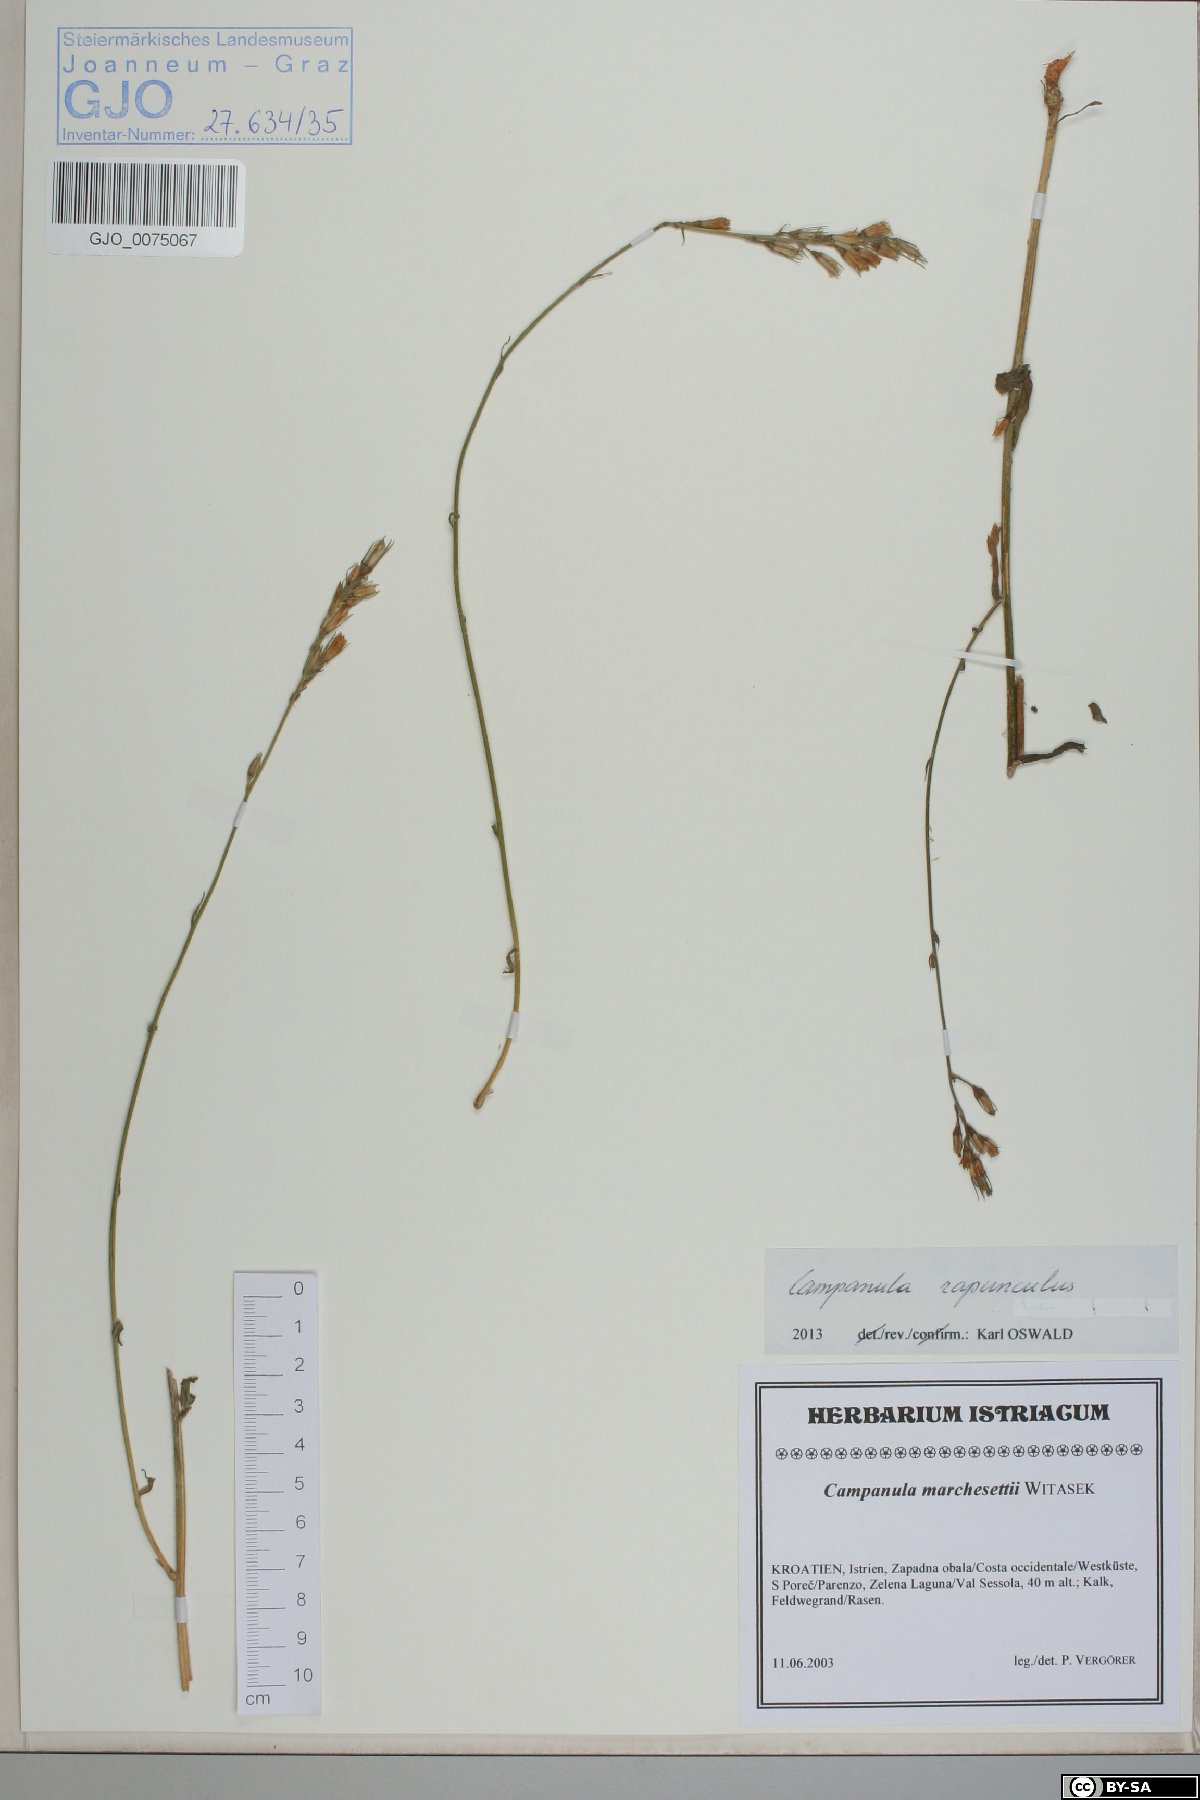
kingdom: Plantae
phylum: Tracheophyta
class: Magnoliopsida
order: Asterales
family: Campanulaceae
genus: Campanula
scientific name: Campanula rapunculus
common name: Rampion bellflower
